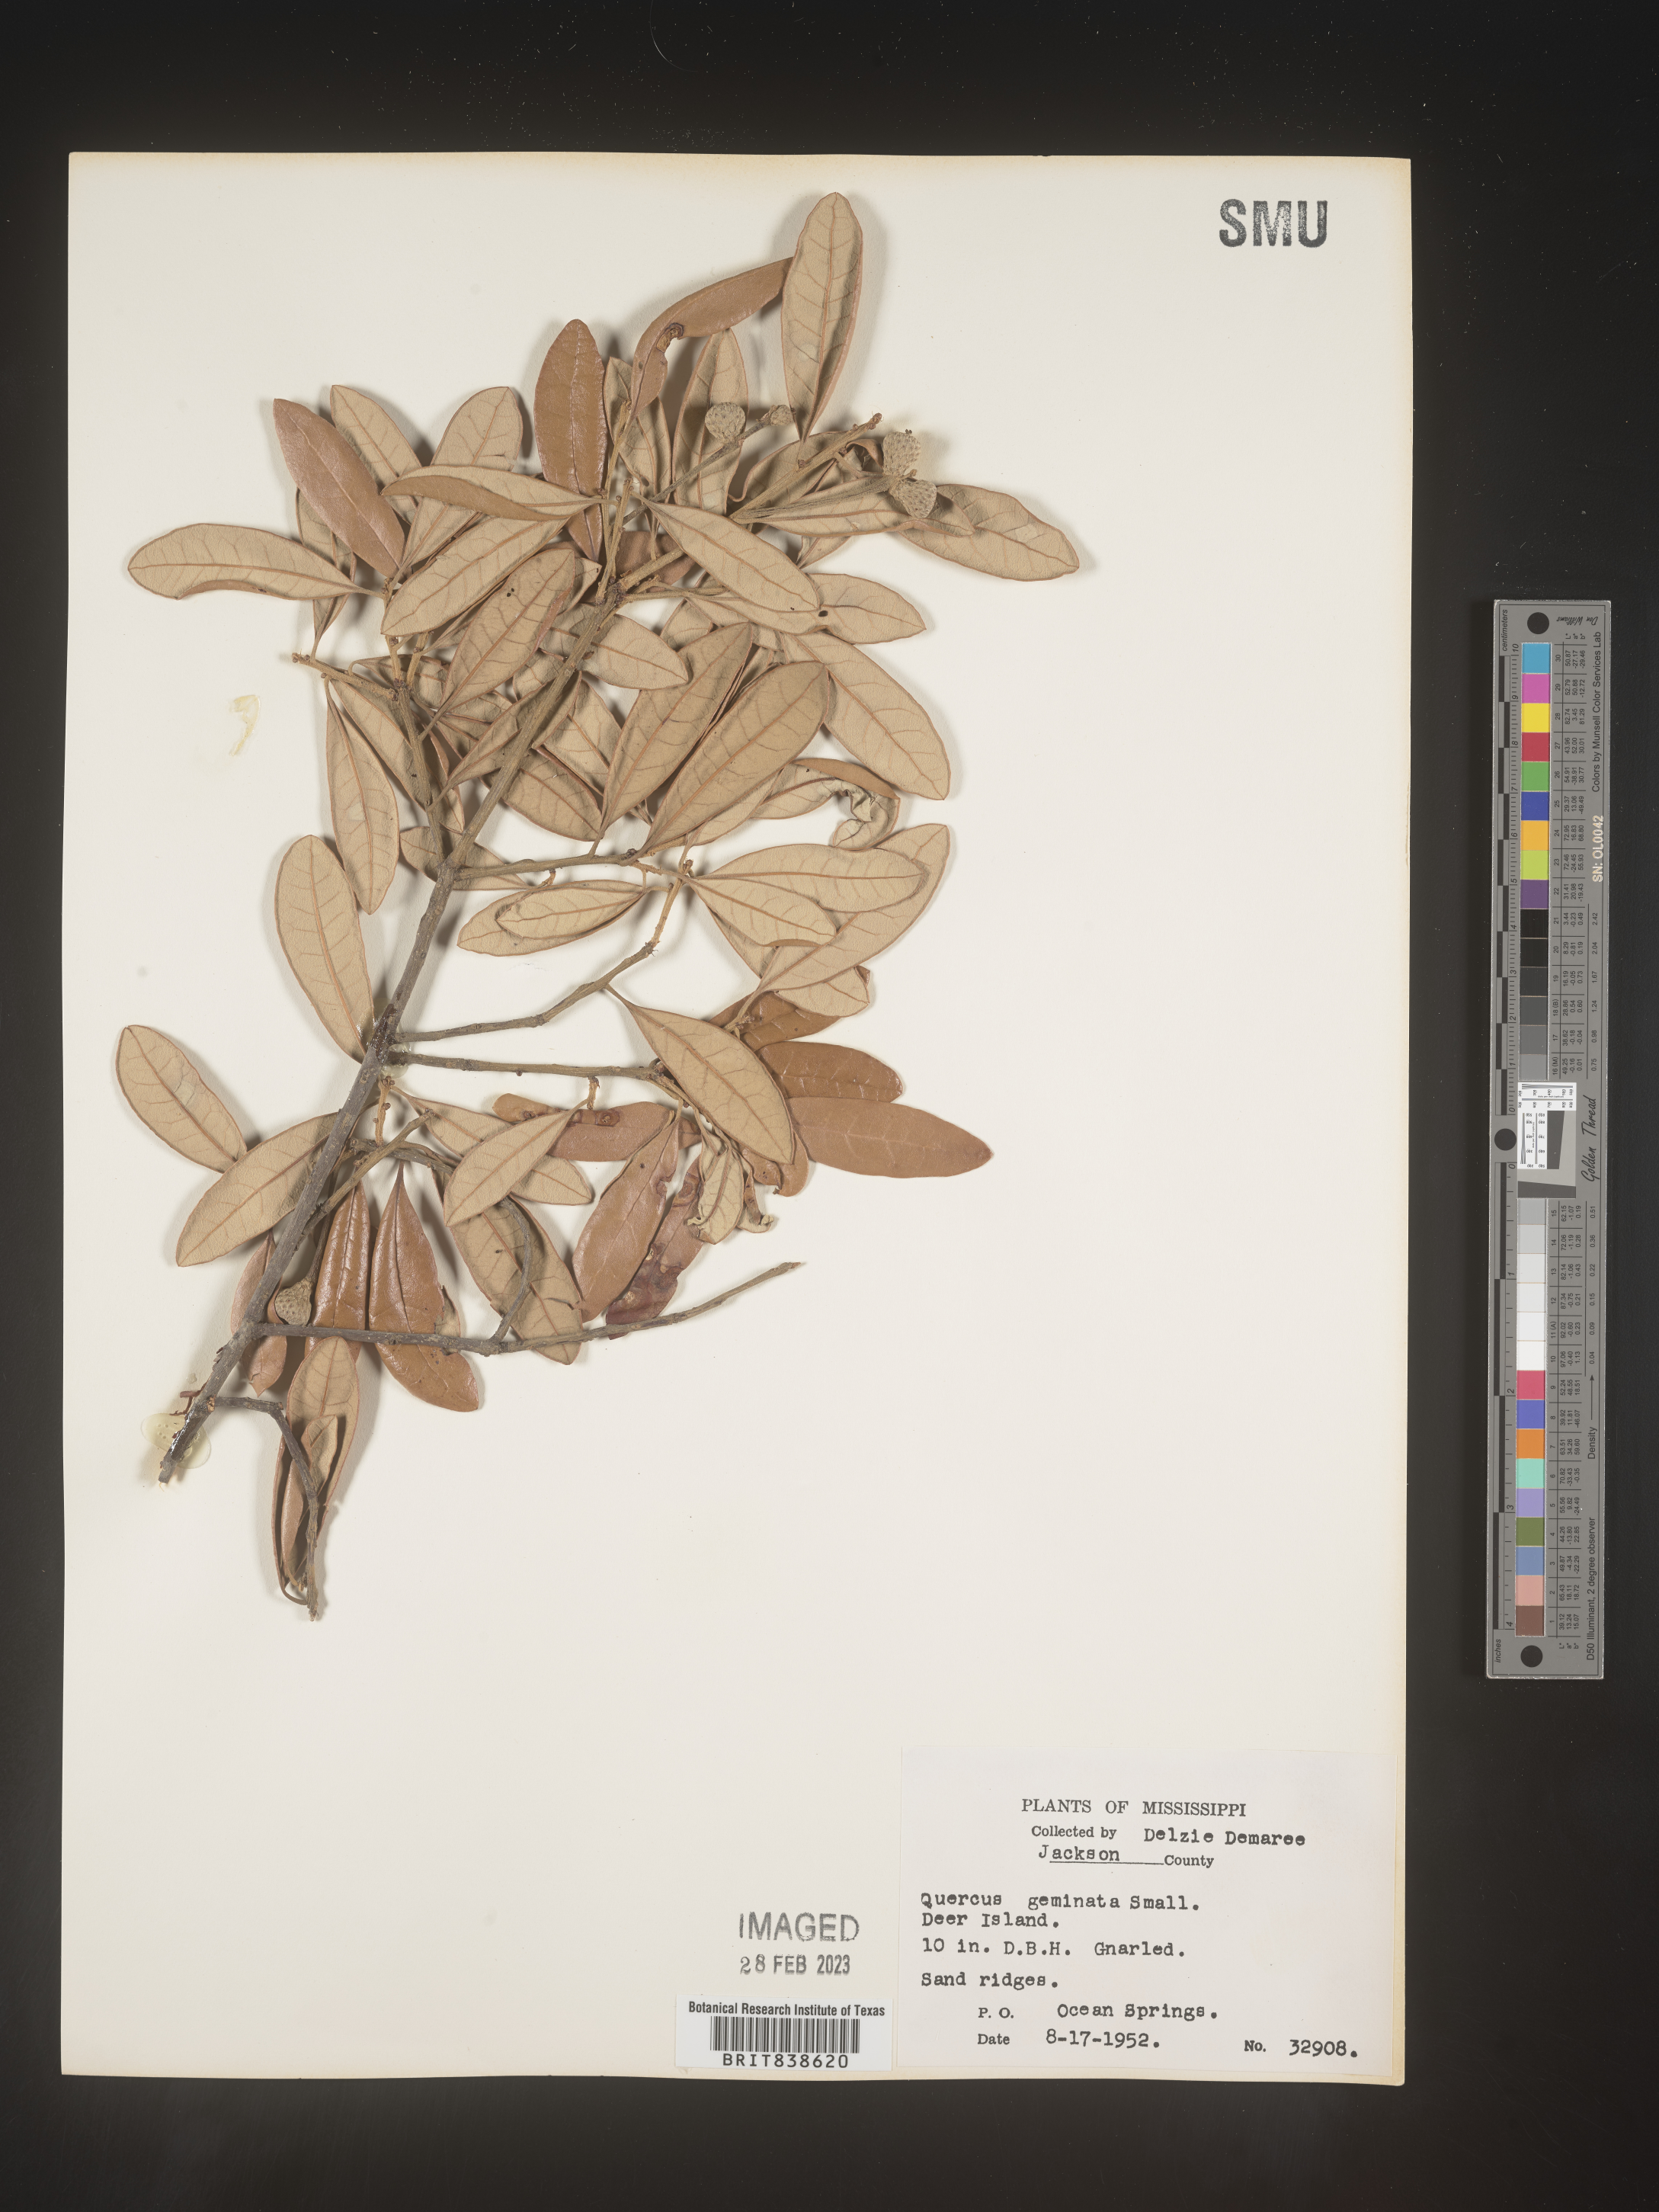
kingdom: Plantae
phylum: Tracheophyta
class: Magnoliopsida
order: Fagales
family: Fagaceae
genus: Quercus
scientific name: Quercus geminata
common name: Sand live oak
